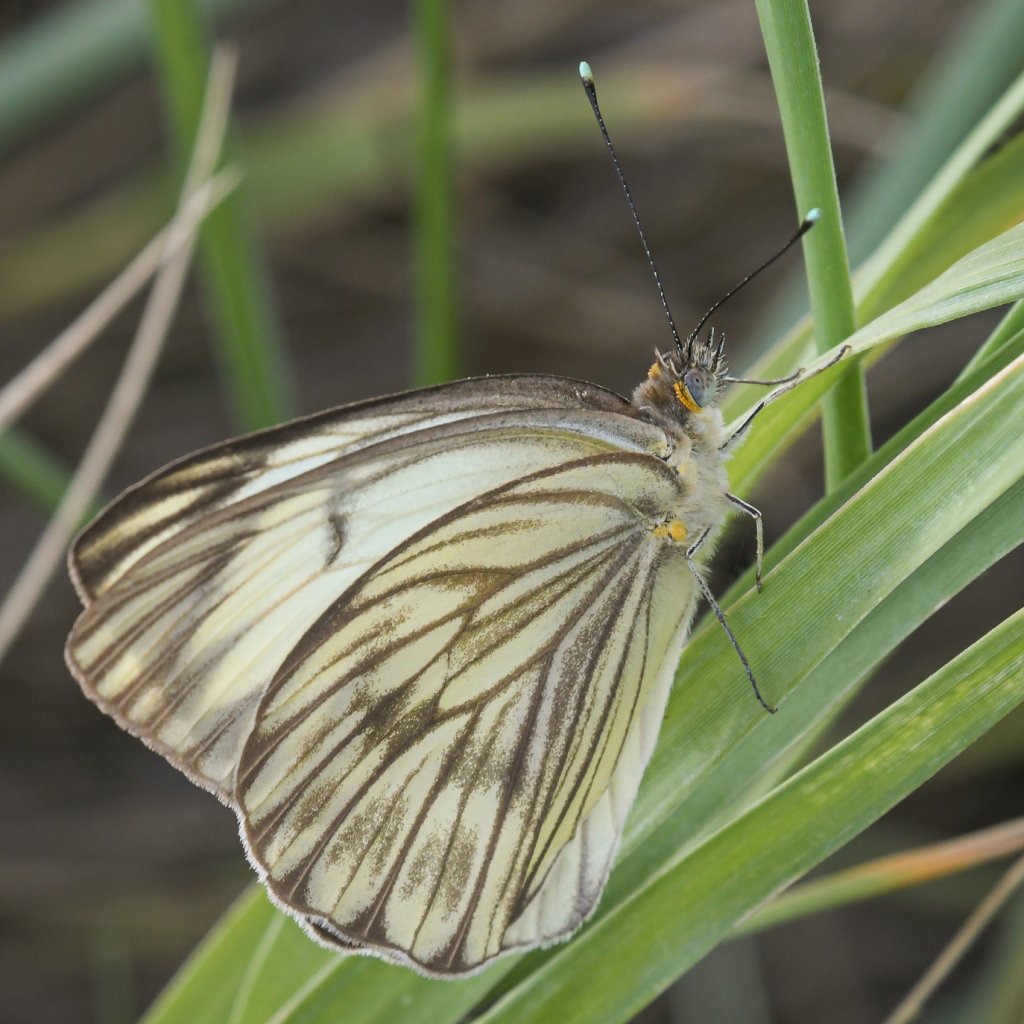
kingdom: Animalia
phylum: Arthropoda
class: Insecta
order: Lepidoptera
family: Pieridae
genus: Ascia
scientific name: Ascia monuste
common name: Great Southern White
